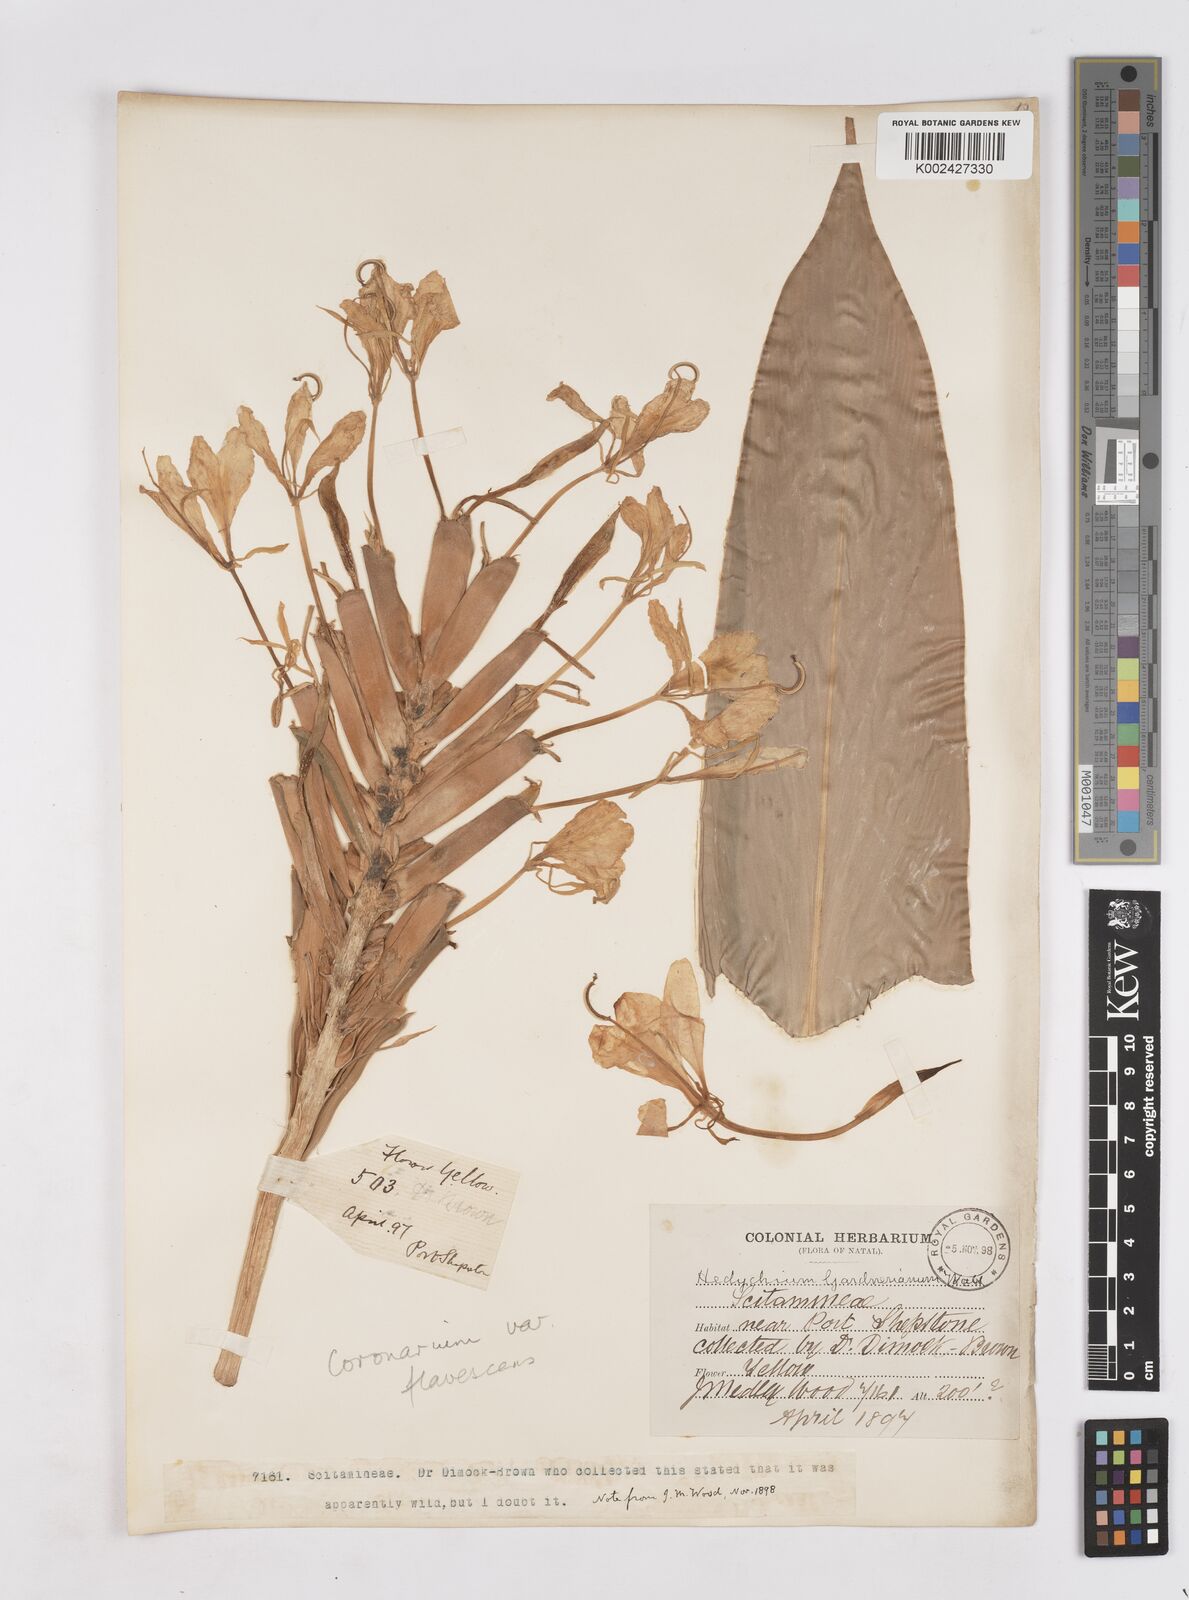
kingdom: Plantae
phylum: Tracheophyta
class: Liliopsida
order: Zingiberales
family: Zingiberaceae
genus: Hedychium
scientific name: Hedychium flavescens
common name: Yellow ginger
